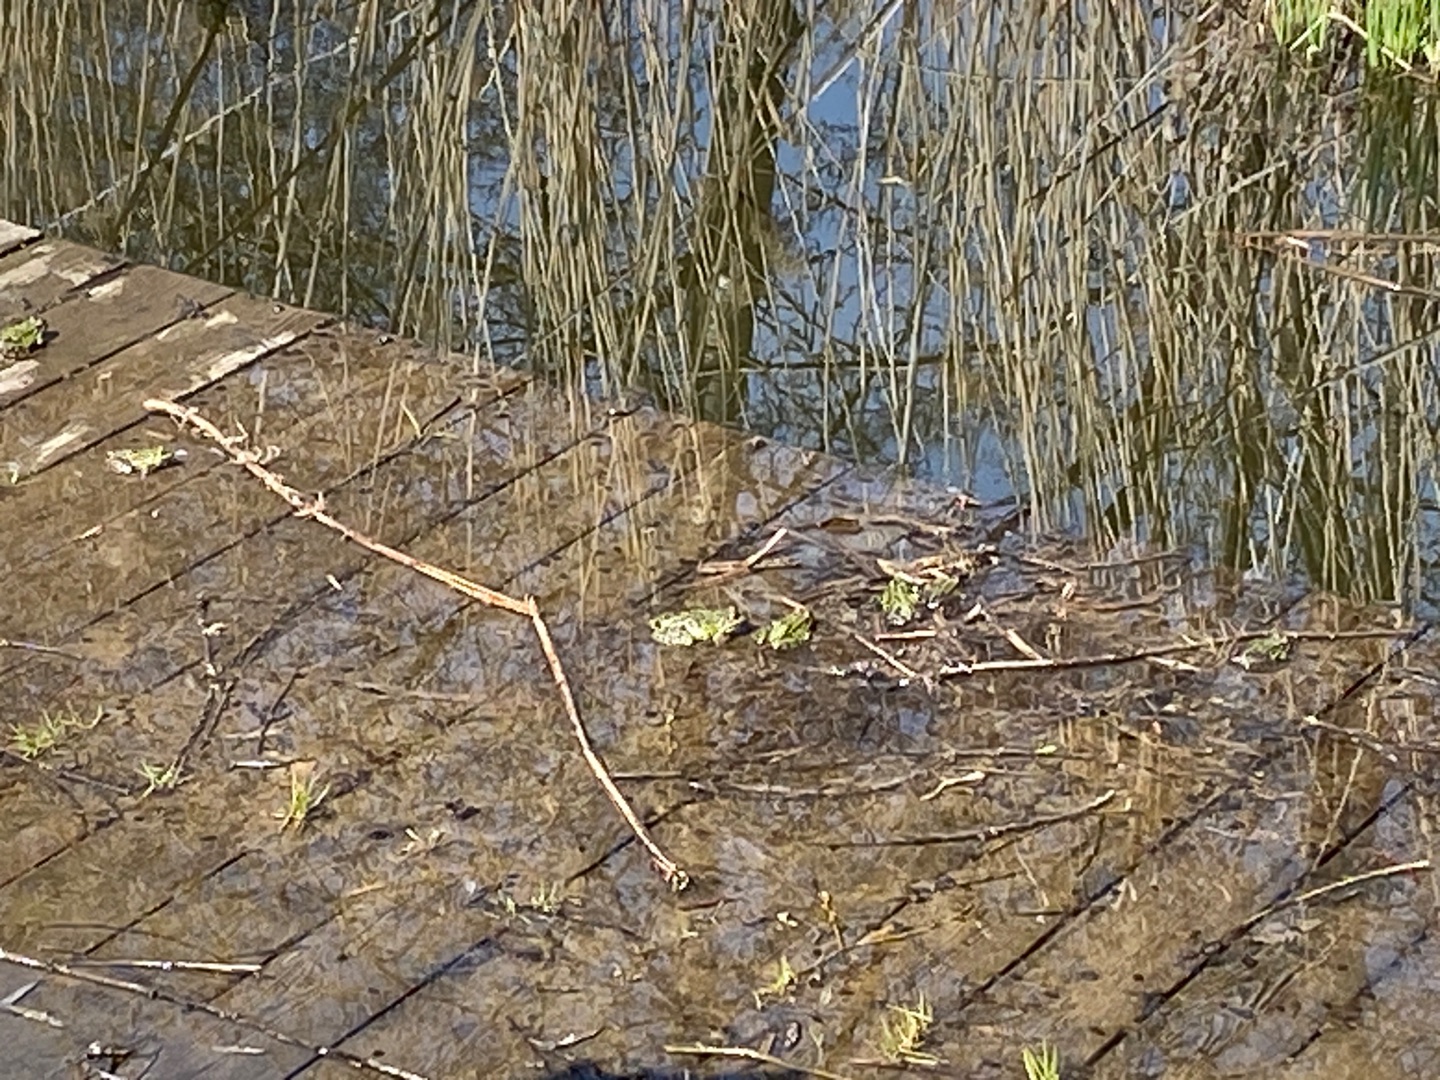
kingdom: Animalia
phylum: Chordata
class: Amphibia
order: Anura
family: Ranidae
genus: Pelophylax
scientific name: Pelophylax lessonae
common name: Grøn frø
